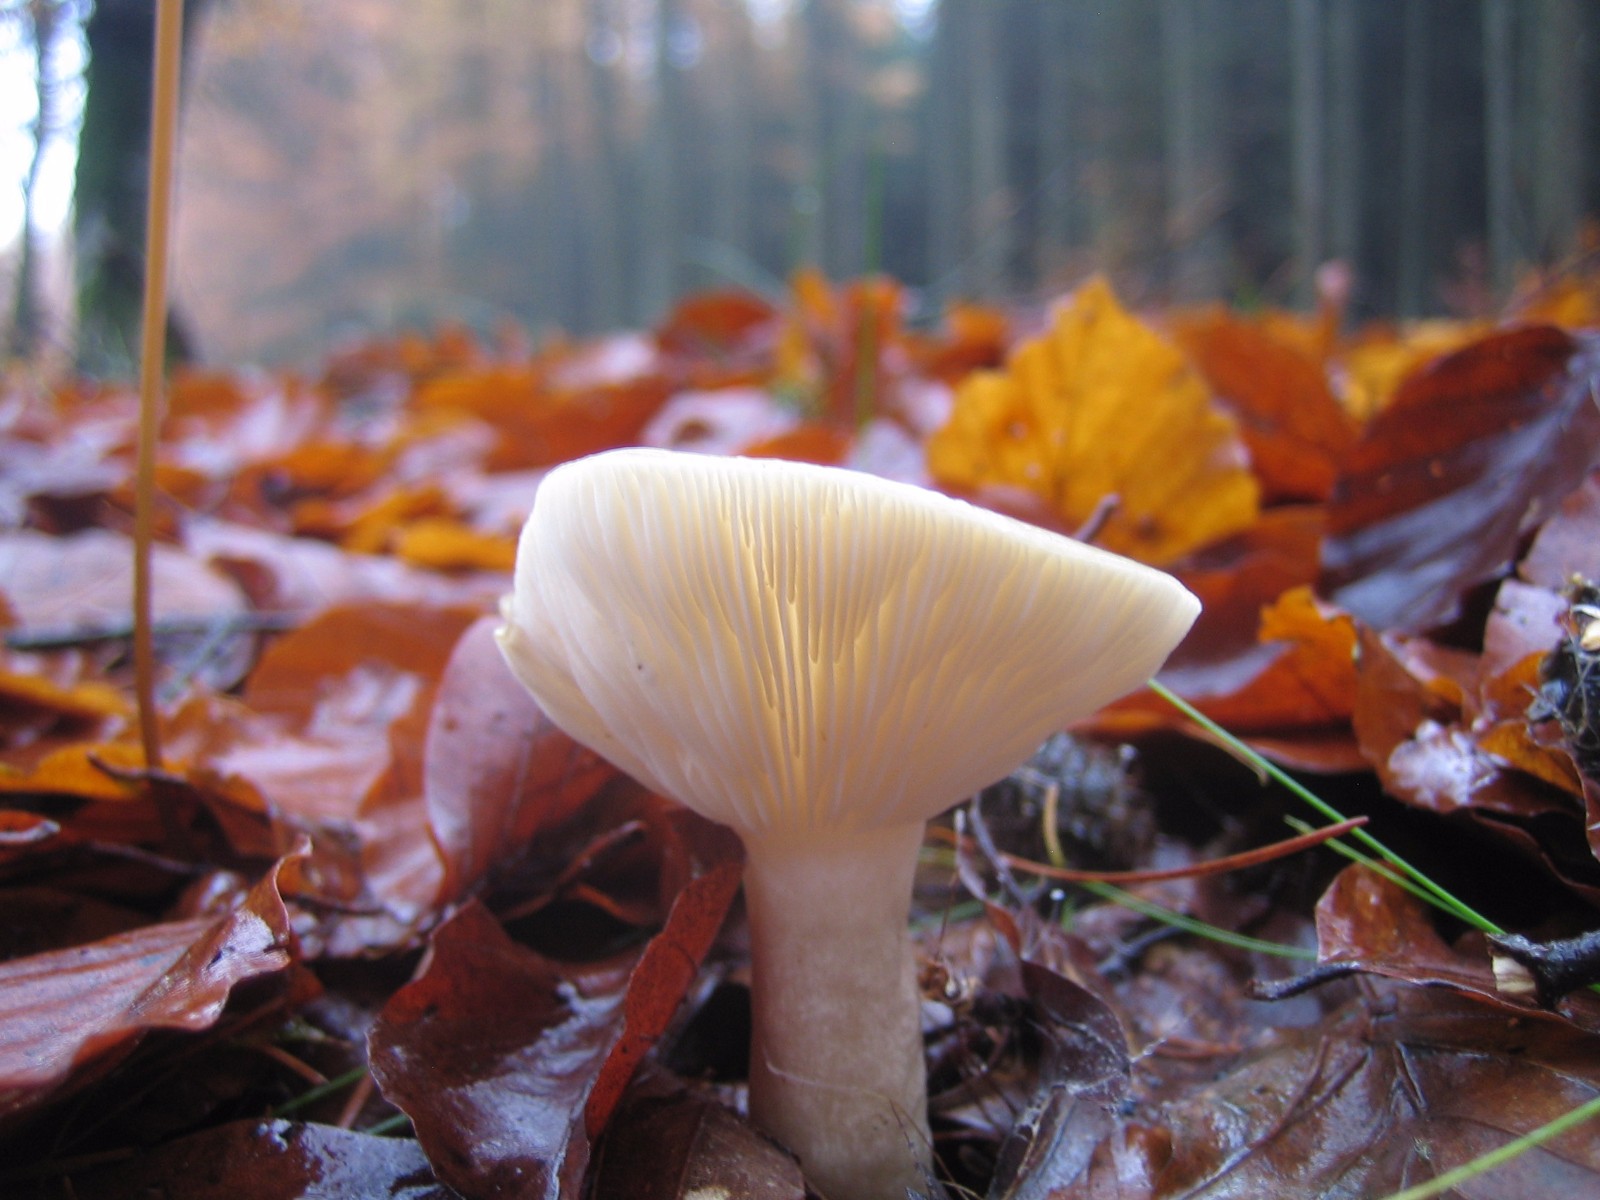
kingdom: Fungi
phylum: Basidiomycota
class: Agaricomycetes
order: Russulales
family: Russulaceae
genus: Lactarius
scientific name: Lactarius blennius
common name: dråbeplettet mælkehat
